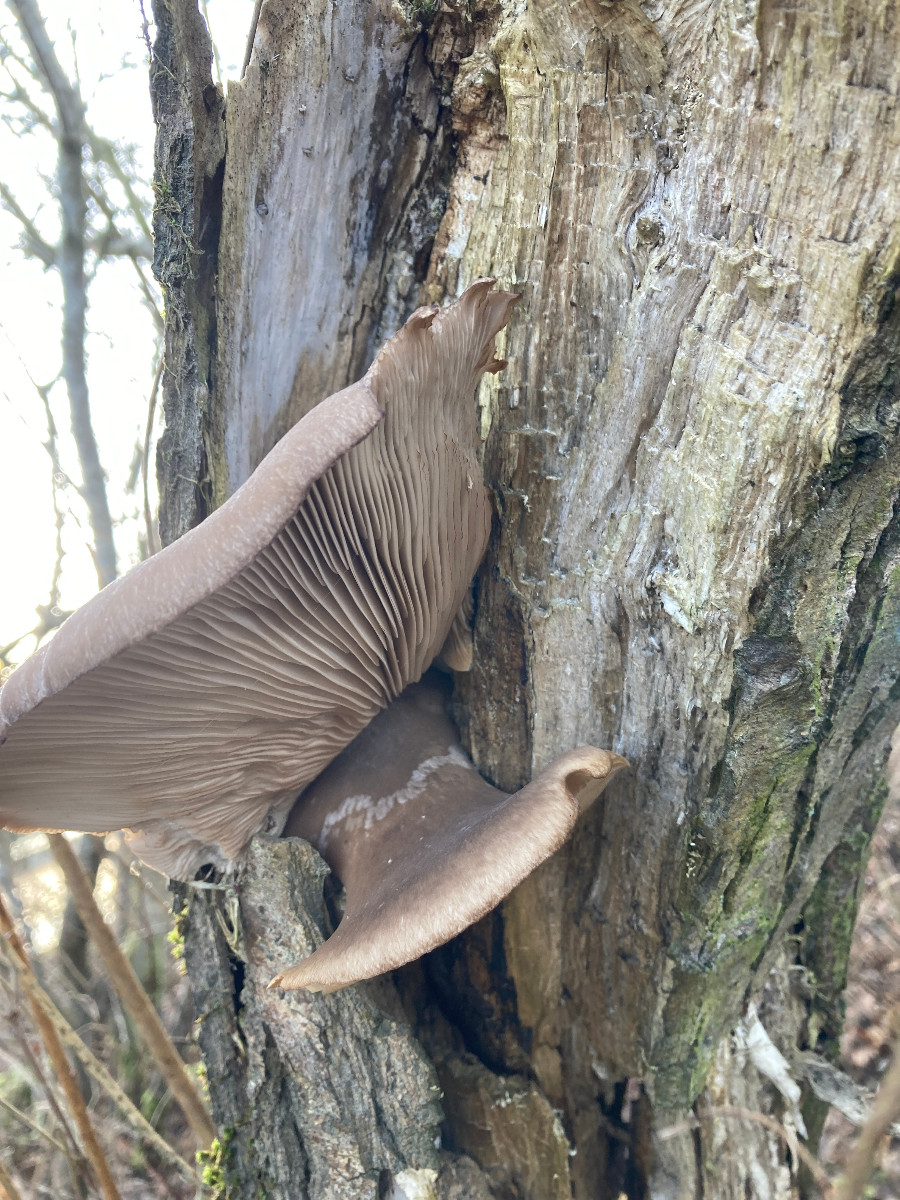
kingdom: Fungi
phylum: Basidiomycota
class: Agaricomycetes
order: Agaricales
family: Pleurotaceae
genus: Pleurotus
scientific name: Pleurotus ostreatus
